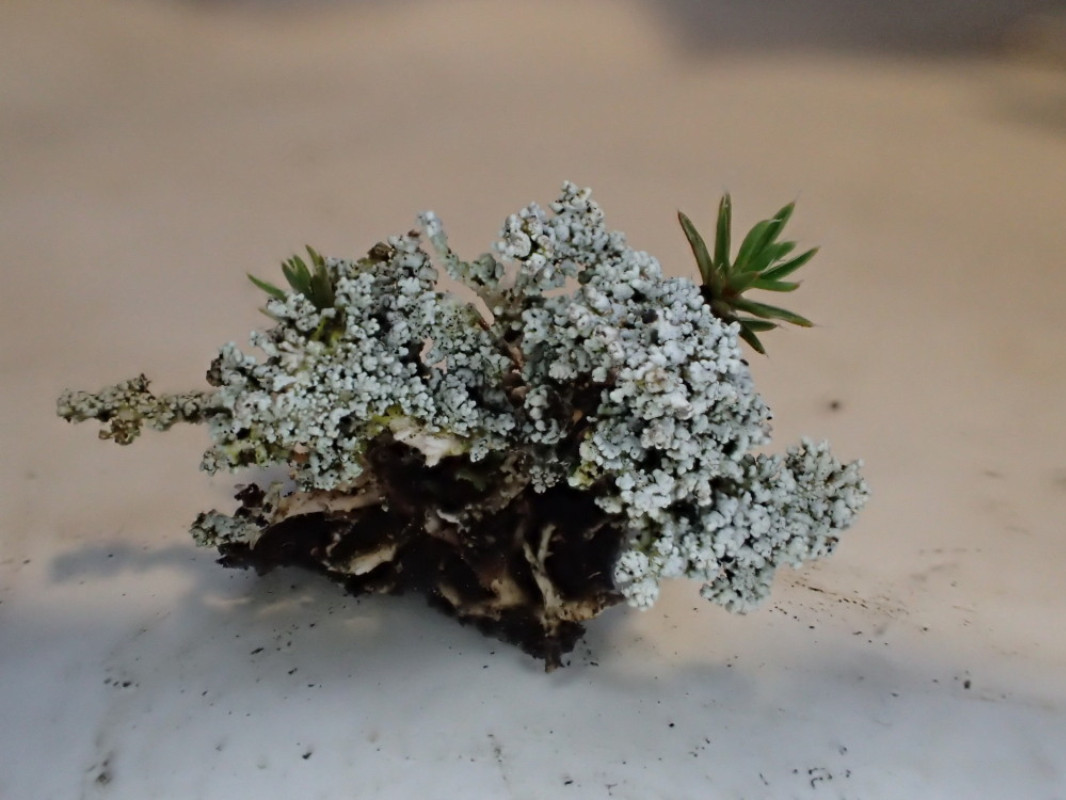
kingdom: Fungi
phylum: Ascomycota
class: Lecanoromycetes
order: Lecanorales
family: Stereocaulaceae
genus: Stereocaulon
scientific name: Stereocaulon saxatile
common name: klit-korallav
